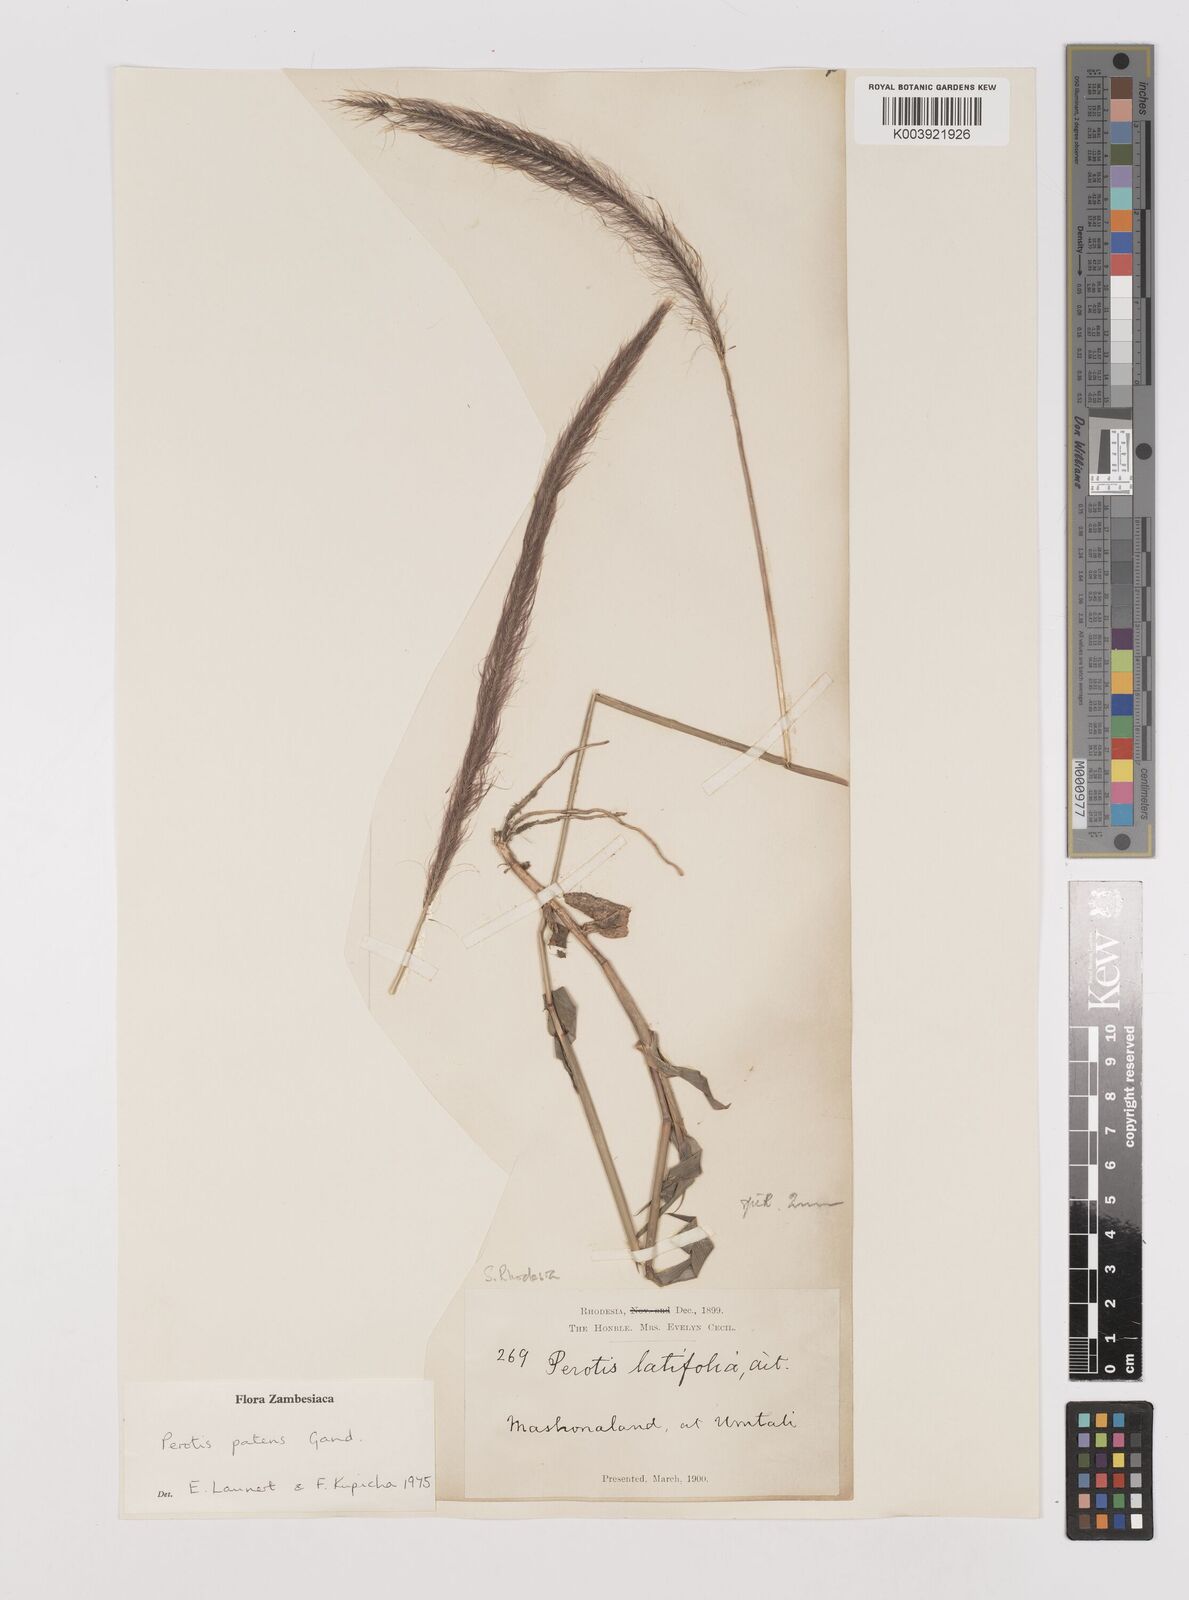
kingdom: Plantae
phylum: Tracheophyta
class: Liliopsida
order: Poales
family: Poaceae
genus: Perotis
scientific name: Perotis patens
